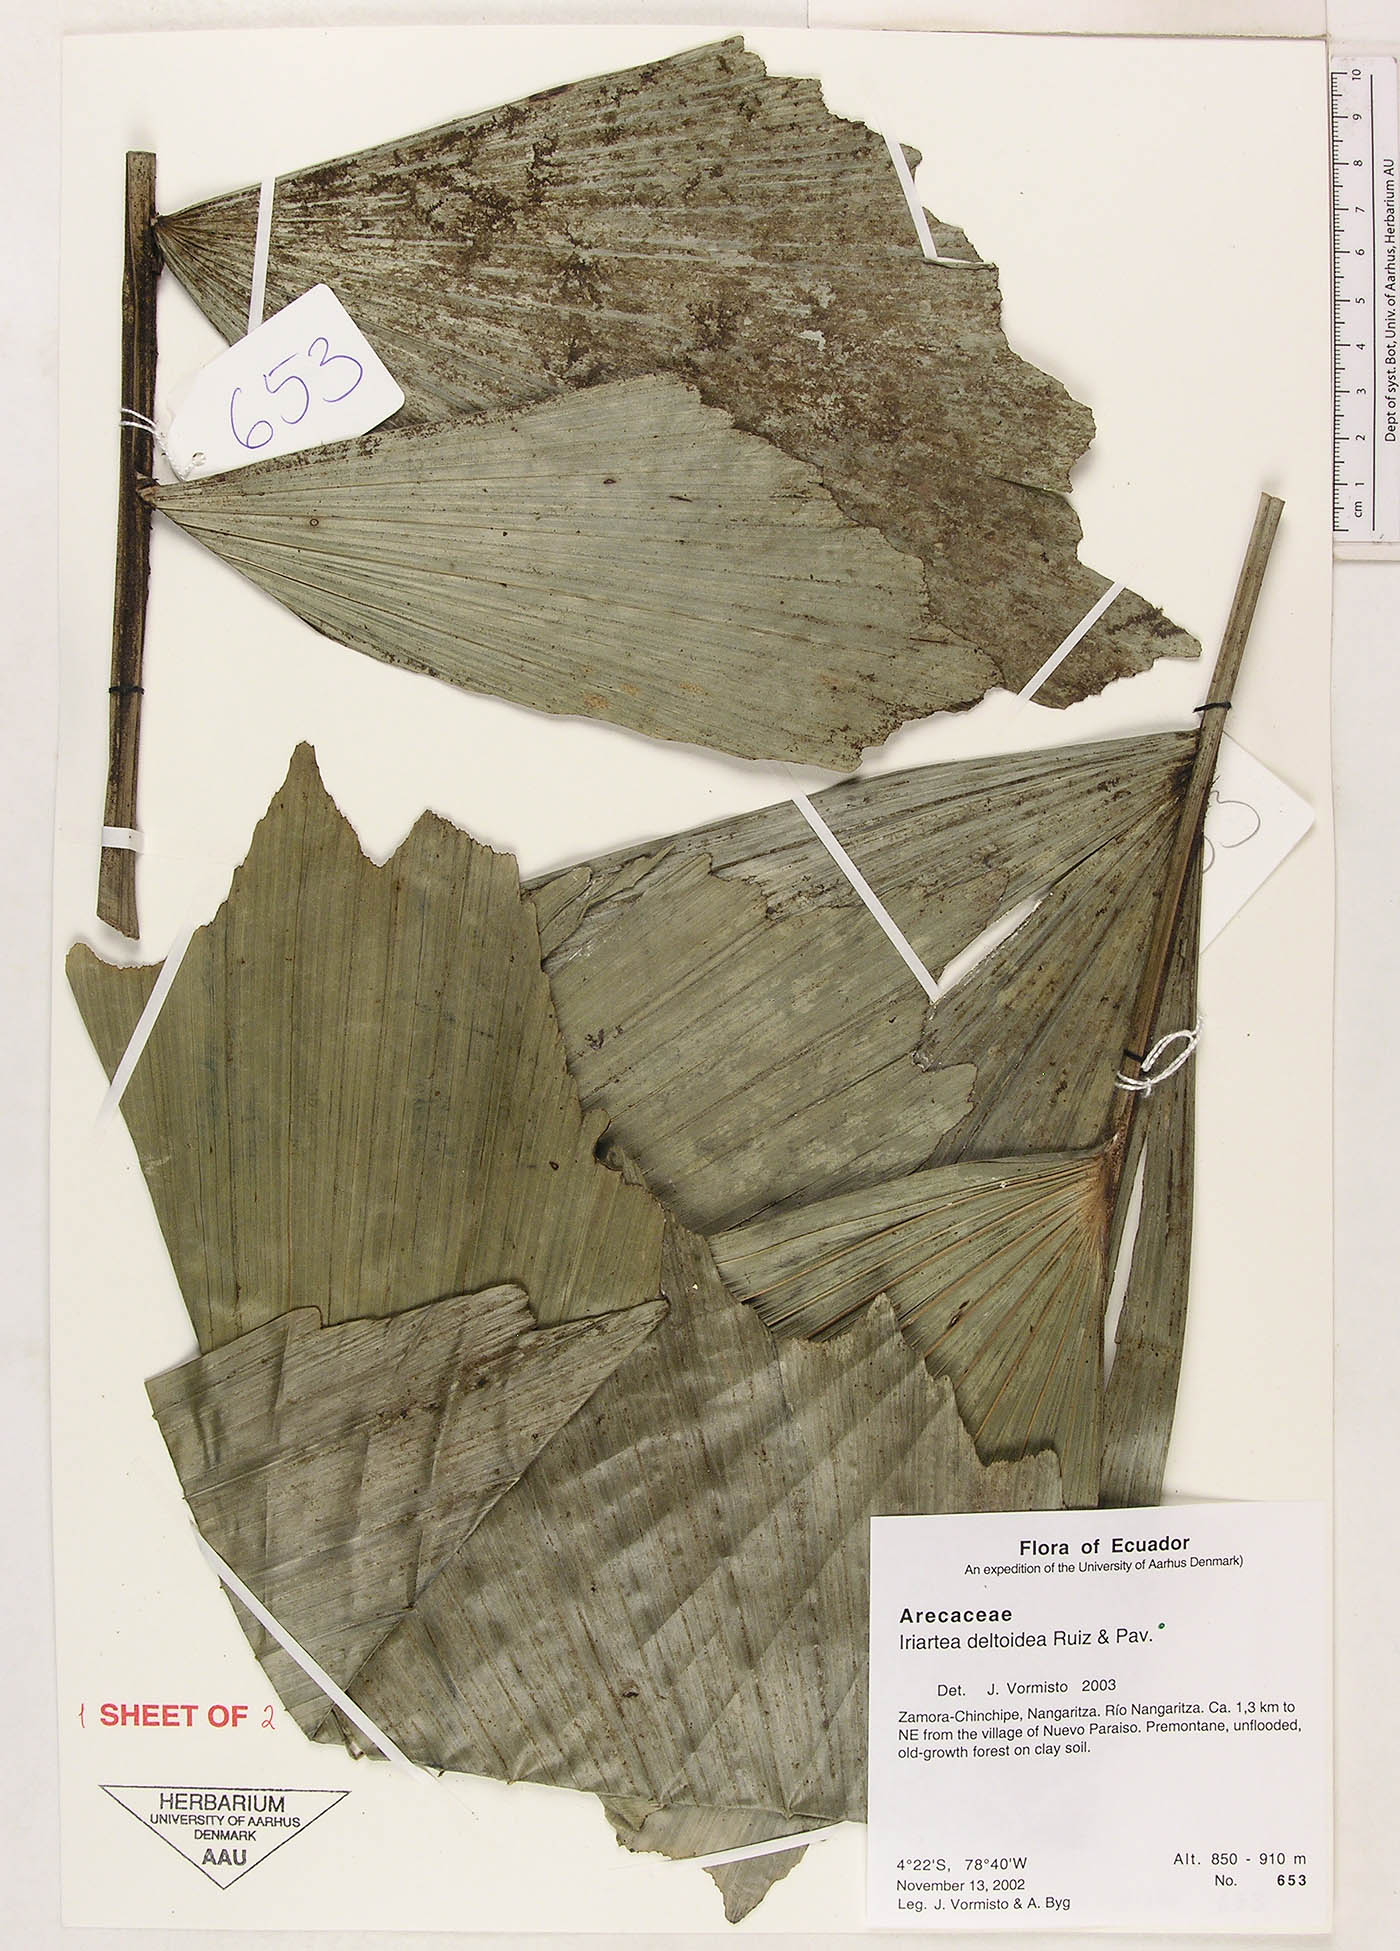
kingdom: Plantae
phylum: Tracheophyta
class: Liliopsida
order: Arecales
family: Arecaceae
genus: Iriartea
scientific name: Iriartea deltoidea
